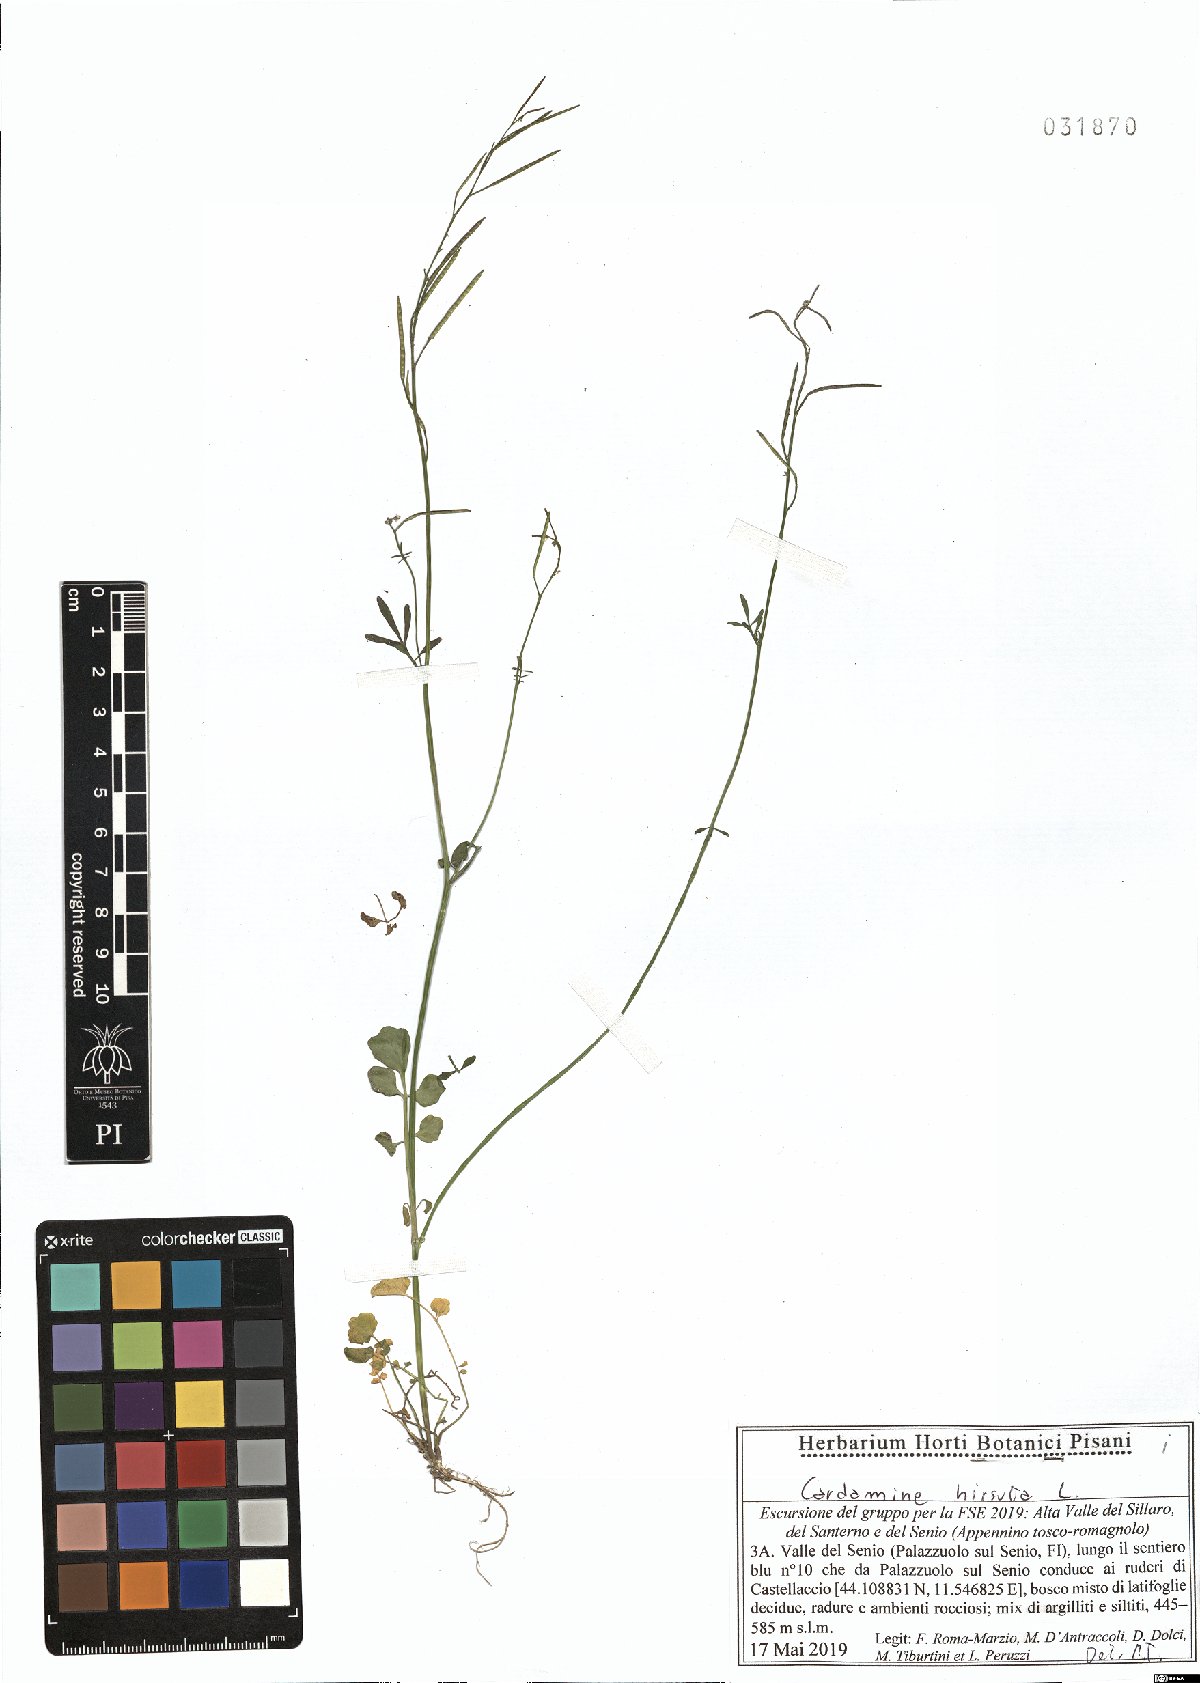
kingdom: Plantae
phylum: Tracheophyta
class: Magnoliopsida
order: Brassicales
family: Brassicaceae
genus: Cardamine
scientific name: Cardamine hirsuta
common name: Hairy bittercress
